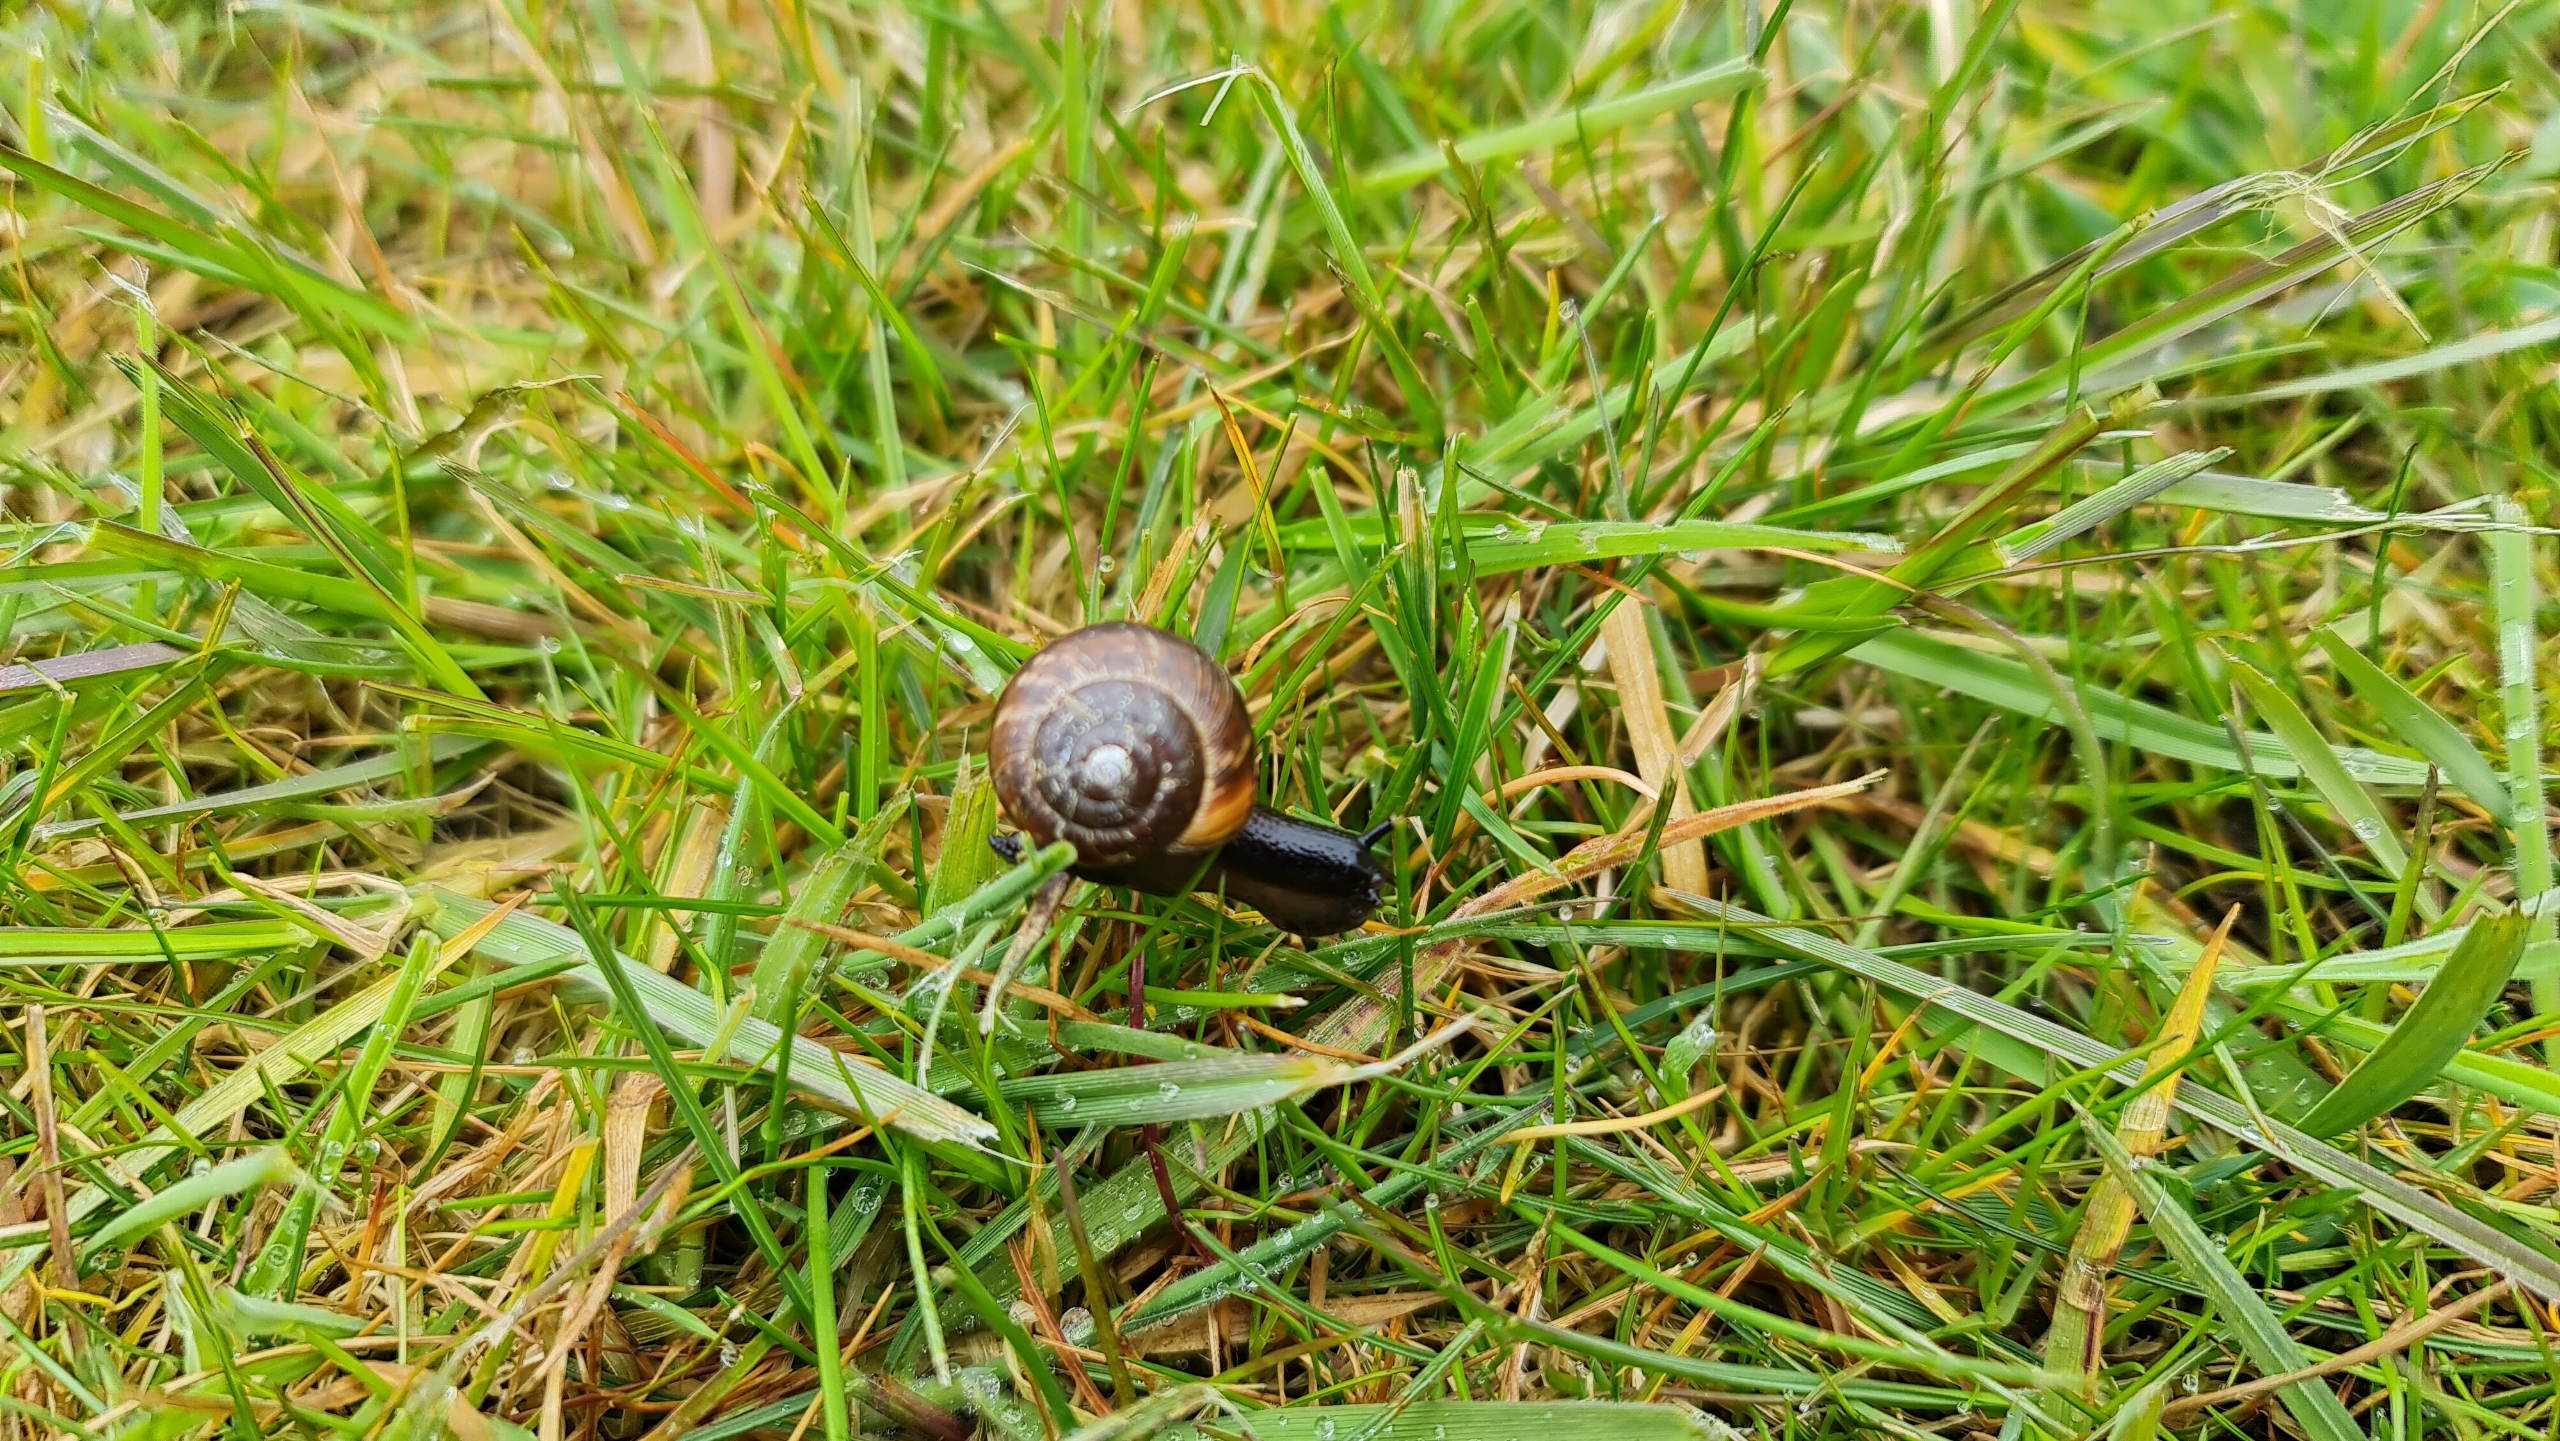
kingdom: Animalia
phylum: Mollusca
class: Gastropoda
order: Stylommatophora
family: Helicidae
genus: Arianta
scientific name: Arianta arbustorum
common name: Kratsnegl
